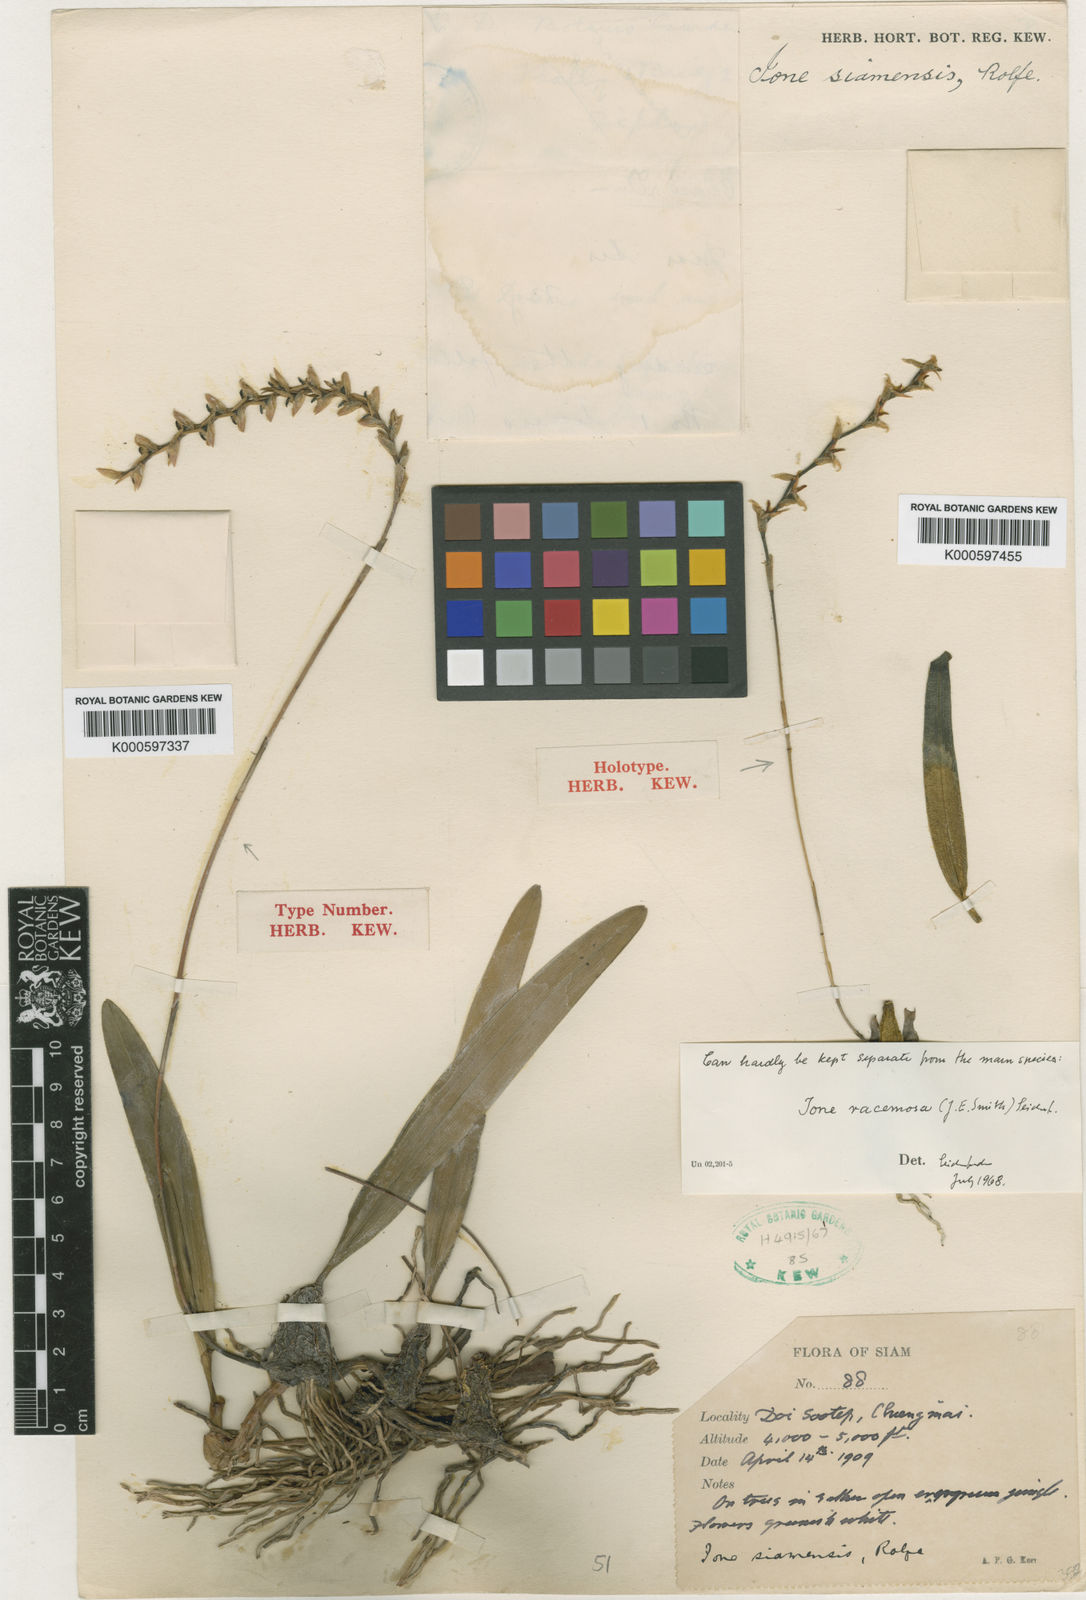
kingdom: Plantae
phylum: Tracheophyta
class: Liliopsida
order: Asparagales
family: Orchidaceae
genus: Bulbophyllum
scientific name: Bulbophyllum reptans
